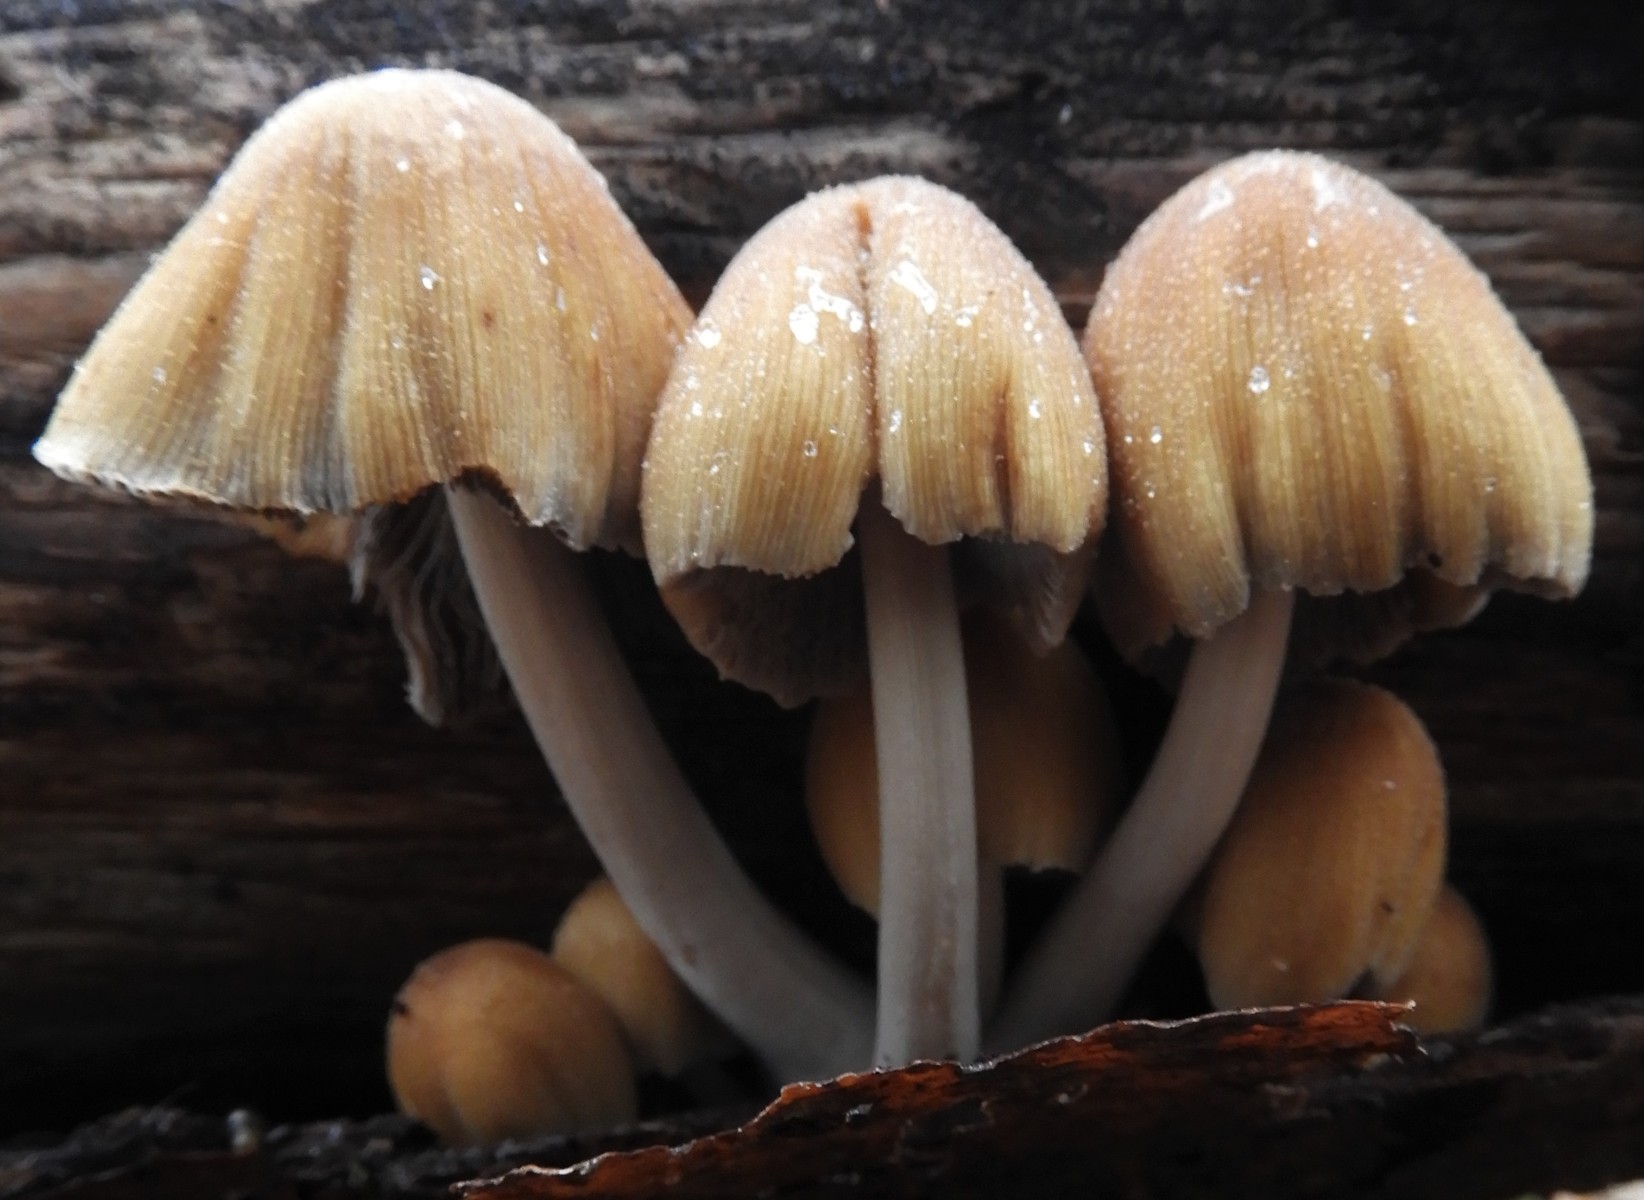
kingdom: Fungi
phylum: Basidiomycota
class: Agaricomycetes
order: Agaricales
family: Psathyrellaceae
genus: Coprinellus
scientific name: Coprinellus
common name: blækhat
